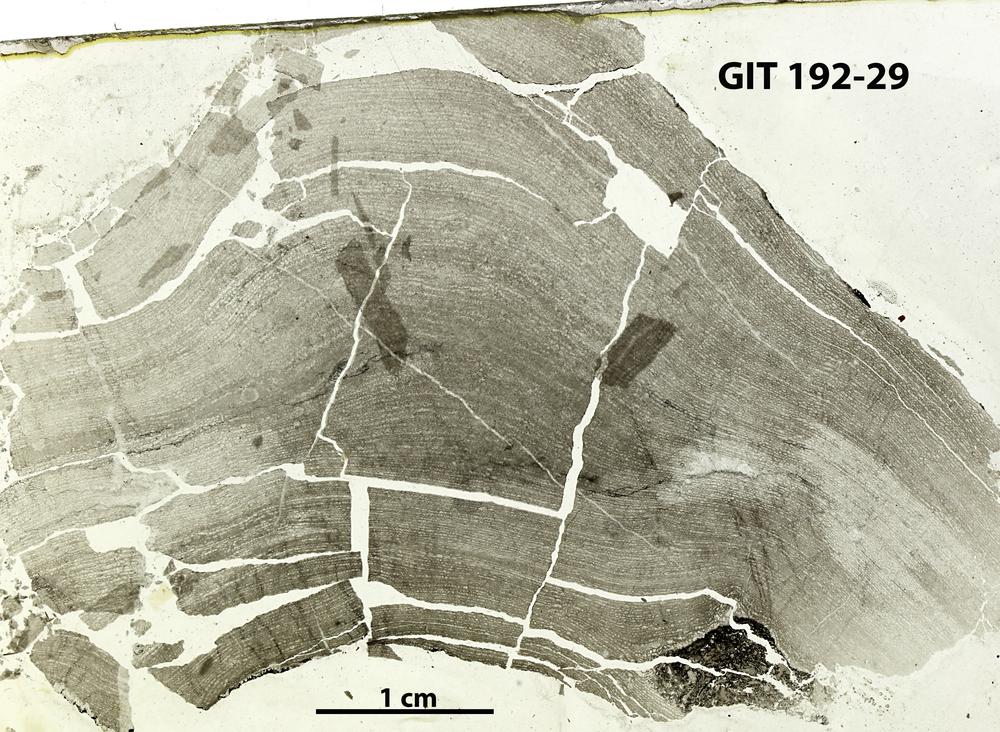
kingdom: Animalia
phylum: Porifera
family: Clathrodictyidae
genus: Clathrodictyon
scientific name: Clathrodictyon Stromatopora variolaris
